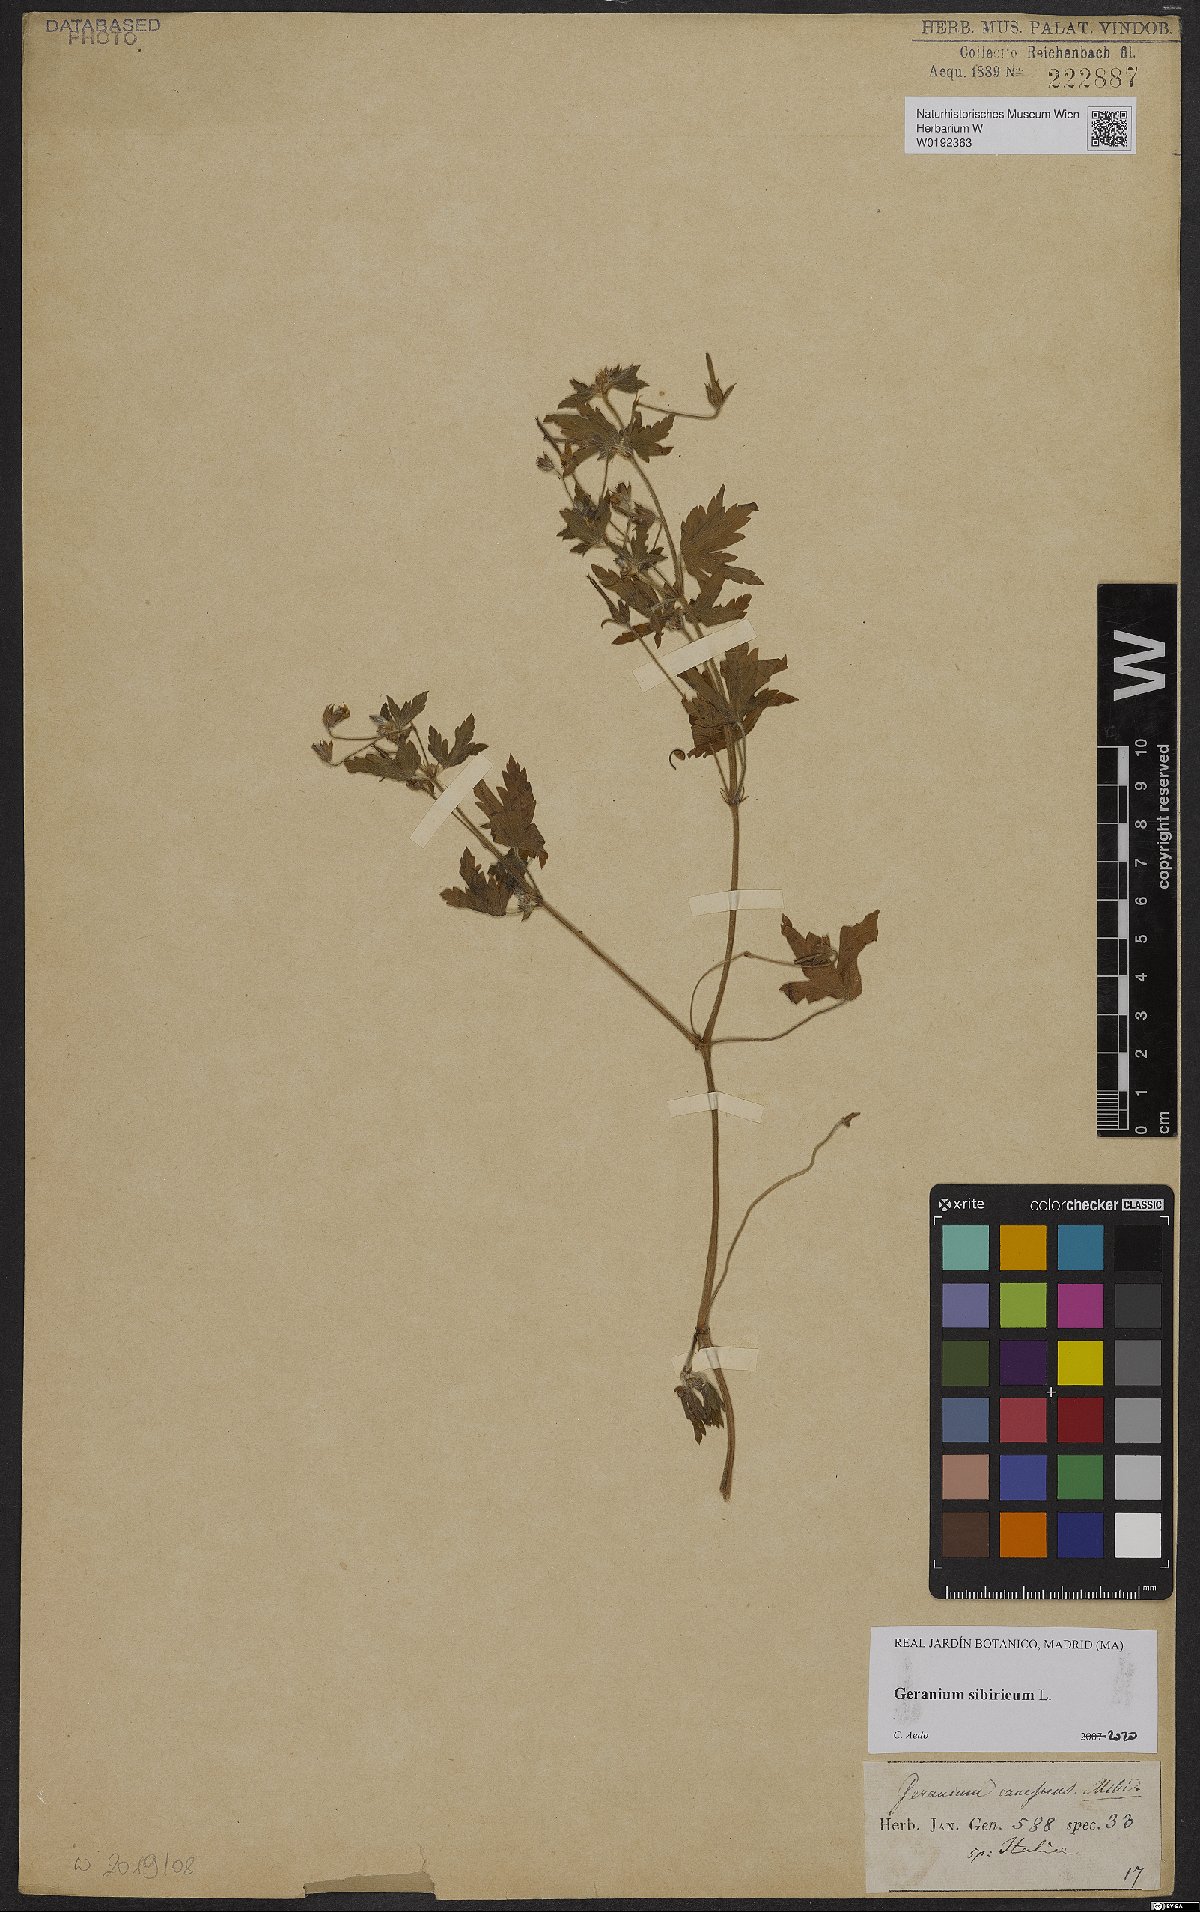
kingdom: Plantae
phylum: Tracheophyta
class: Magnoliopsida
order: Geraniales
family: Geraniaceae
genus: Geranium
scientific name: Geranium sibiricum
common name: Siberian crane's-bill
